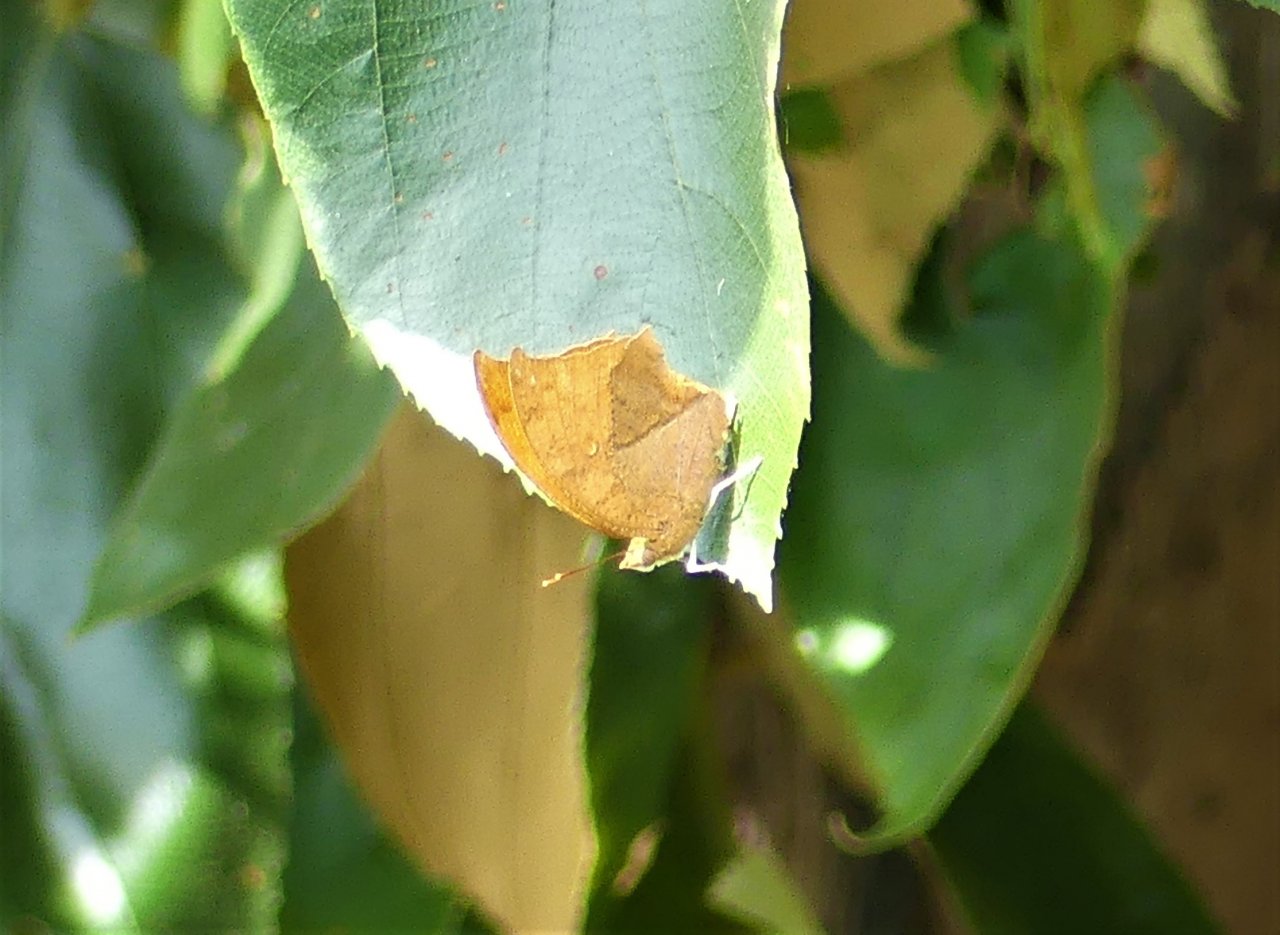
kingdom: Animalia
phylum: Arthropoda
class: Insecta
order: Lepidoptera
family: Nymphalidae
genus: Fountainea
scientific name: Fountainea
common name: Angled Leafwing
